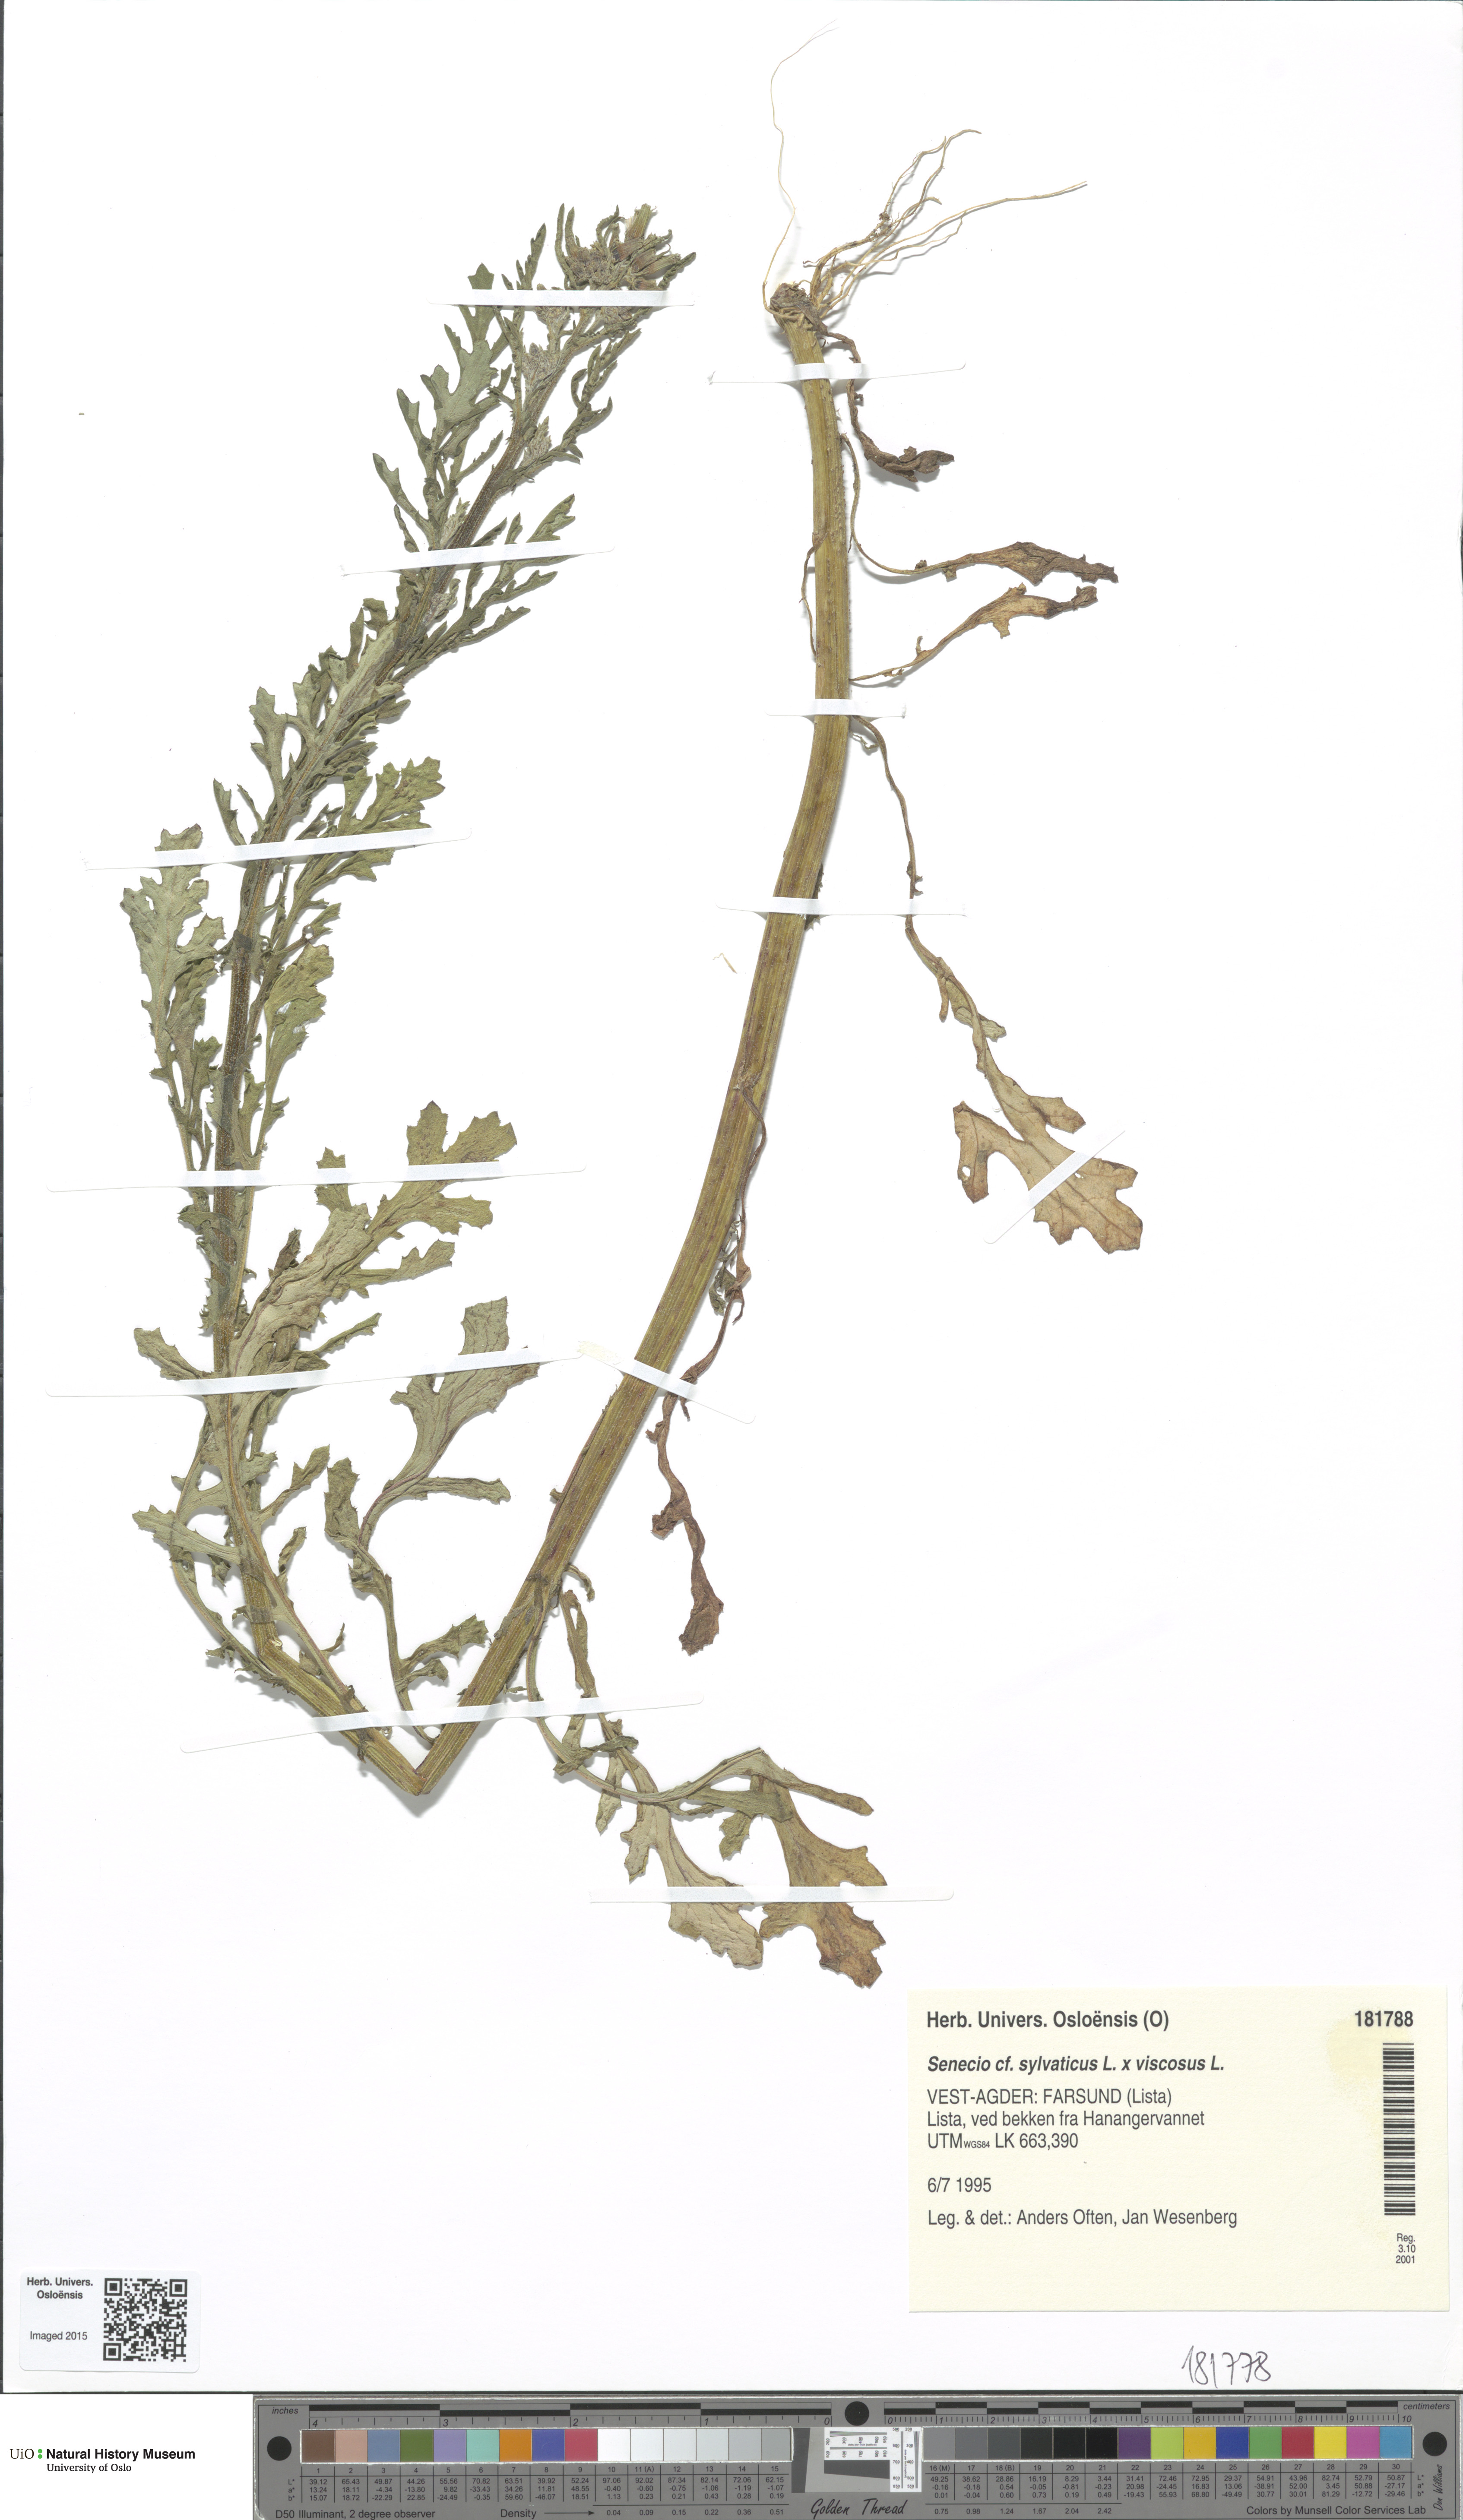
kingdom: Plantae
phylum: Tracheophyta
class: Magnoliopsida
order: Asterales
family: Asteraceae
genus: Senecio
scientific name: Senecio
